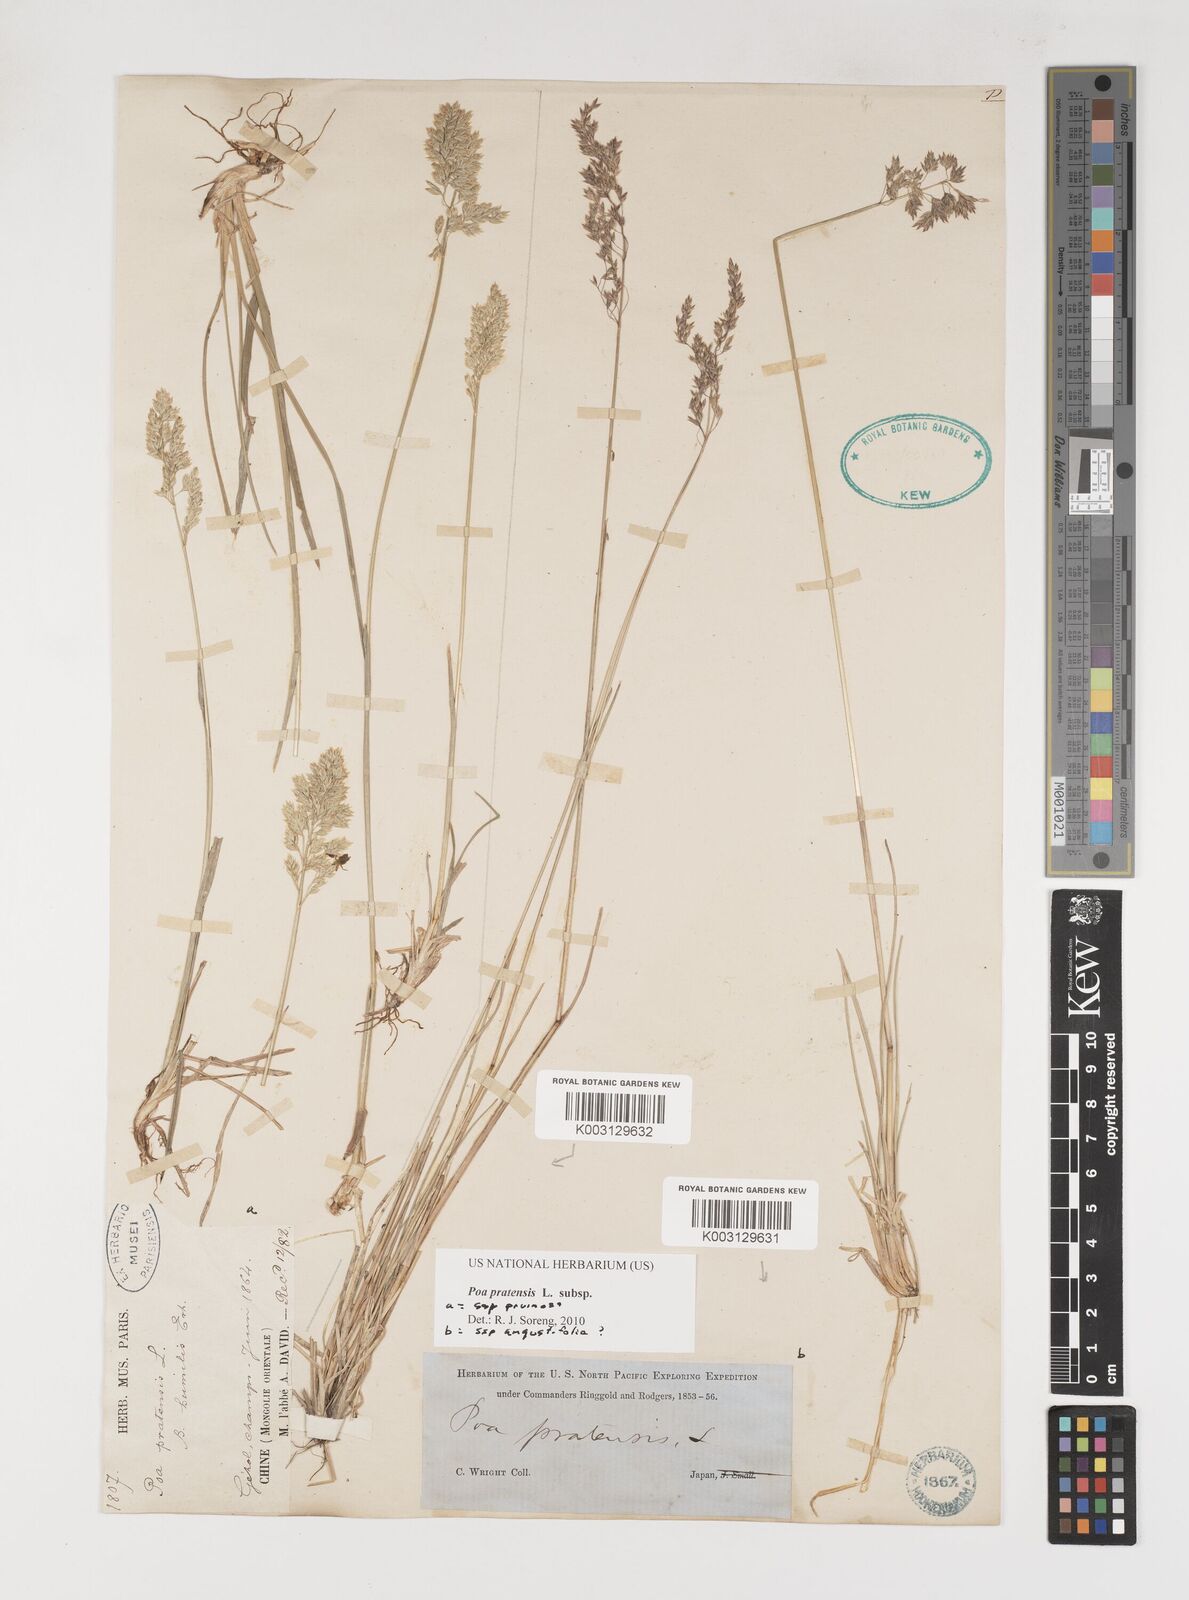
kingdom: Plantae
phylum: Tracheophyta
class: Liliopsida
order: Poales
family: Poaceae
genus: Poa
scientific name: Poa angustifolia
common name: Narrow-leaved meadow-grass
